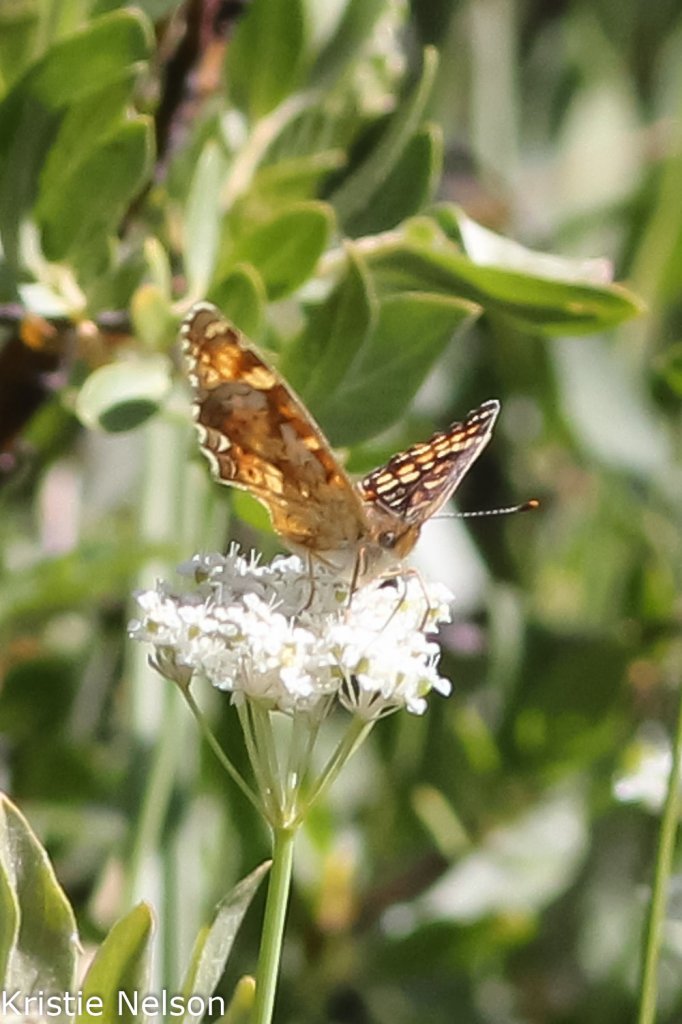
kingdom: Animalia
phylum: Arthropoda
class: Insecta
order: Lepidoptera
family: Nymphalidae
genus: Phyciodes
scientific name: Phyciodes orseis
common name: California Crescent
